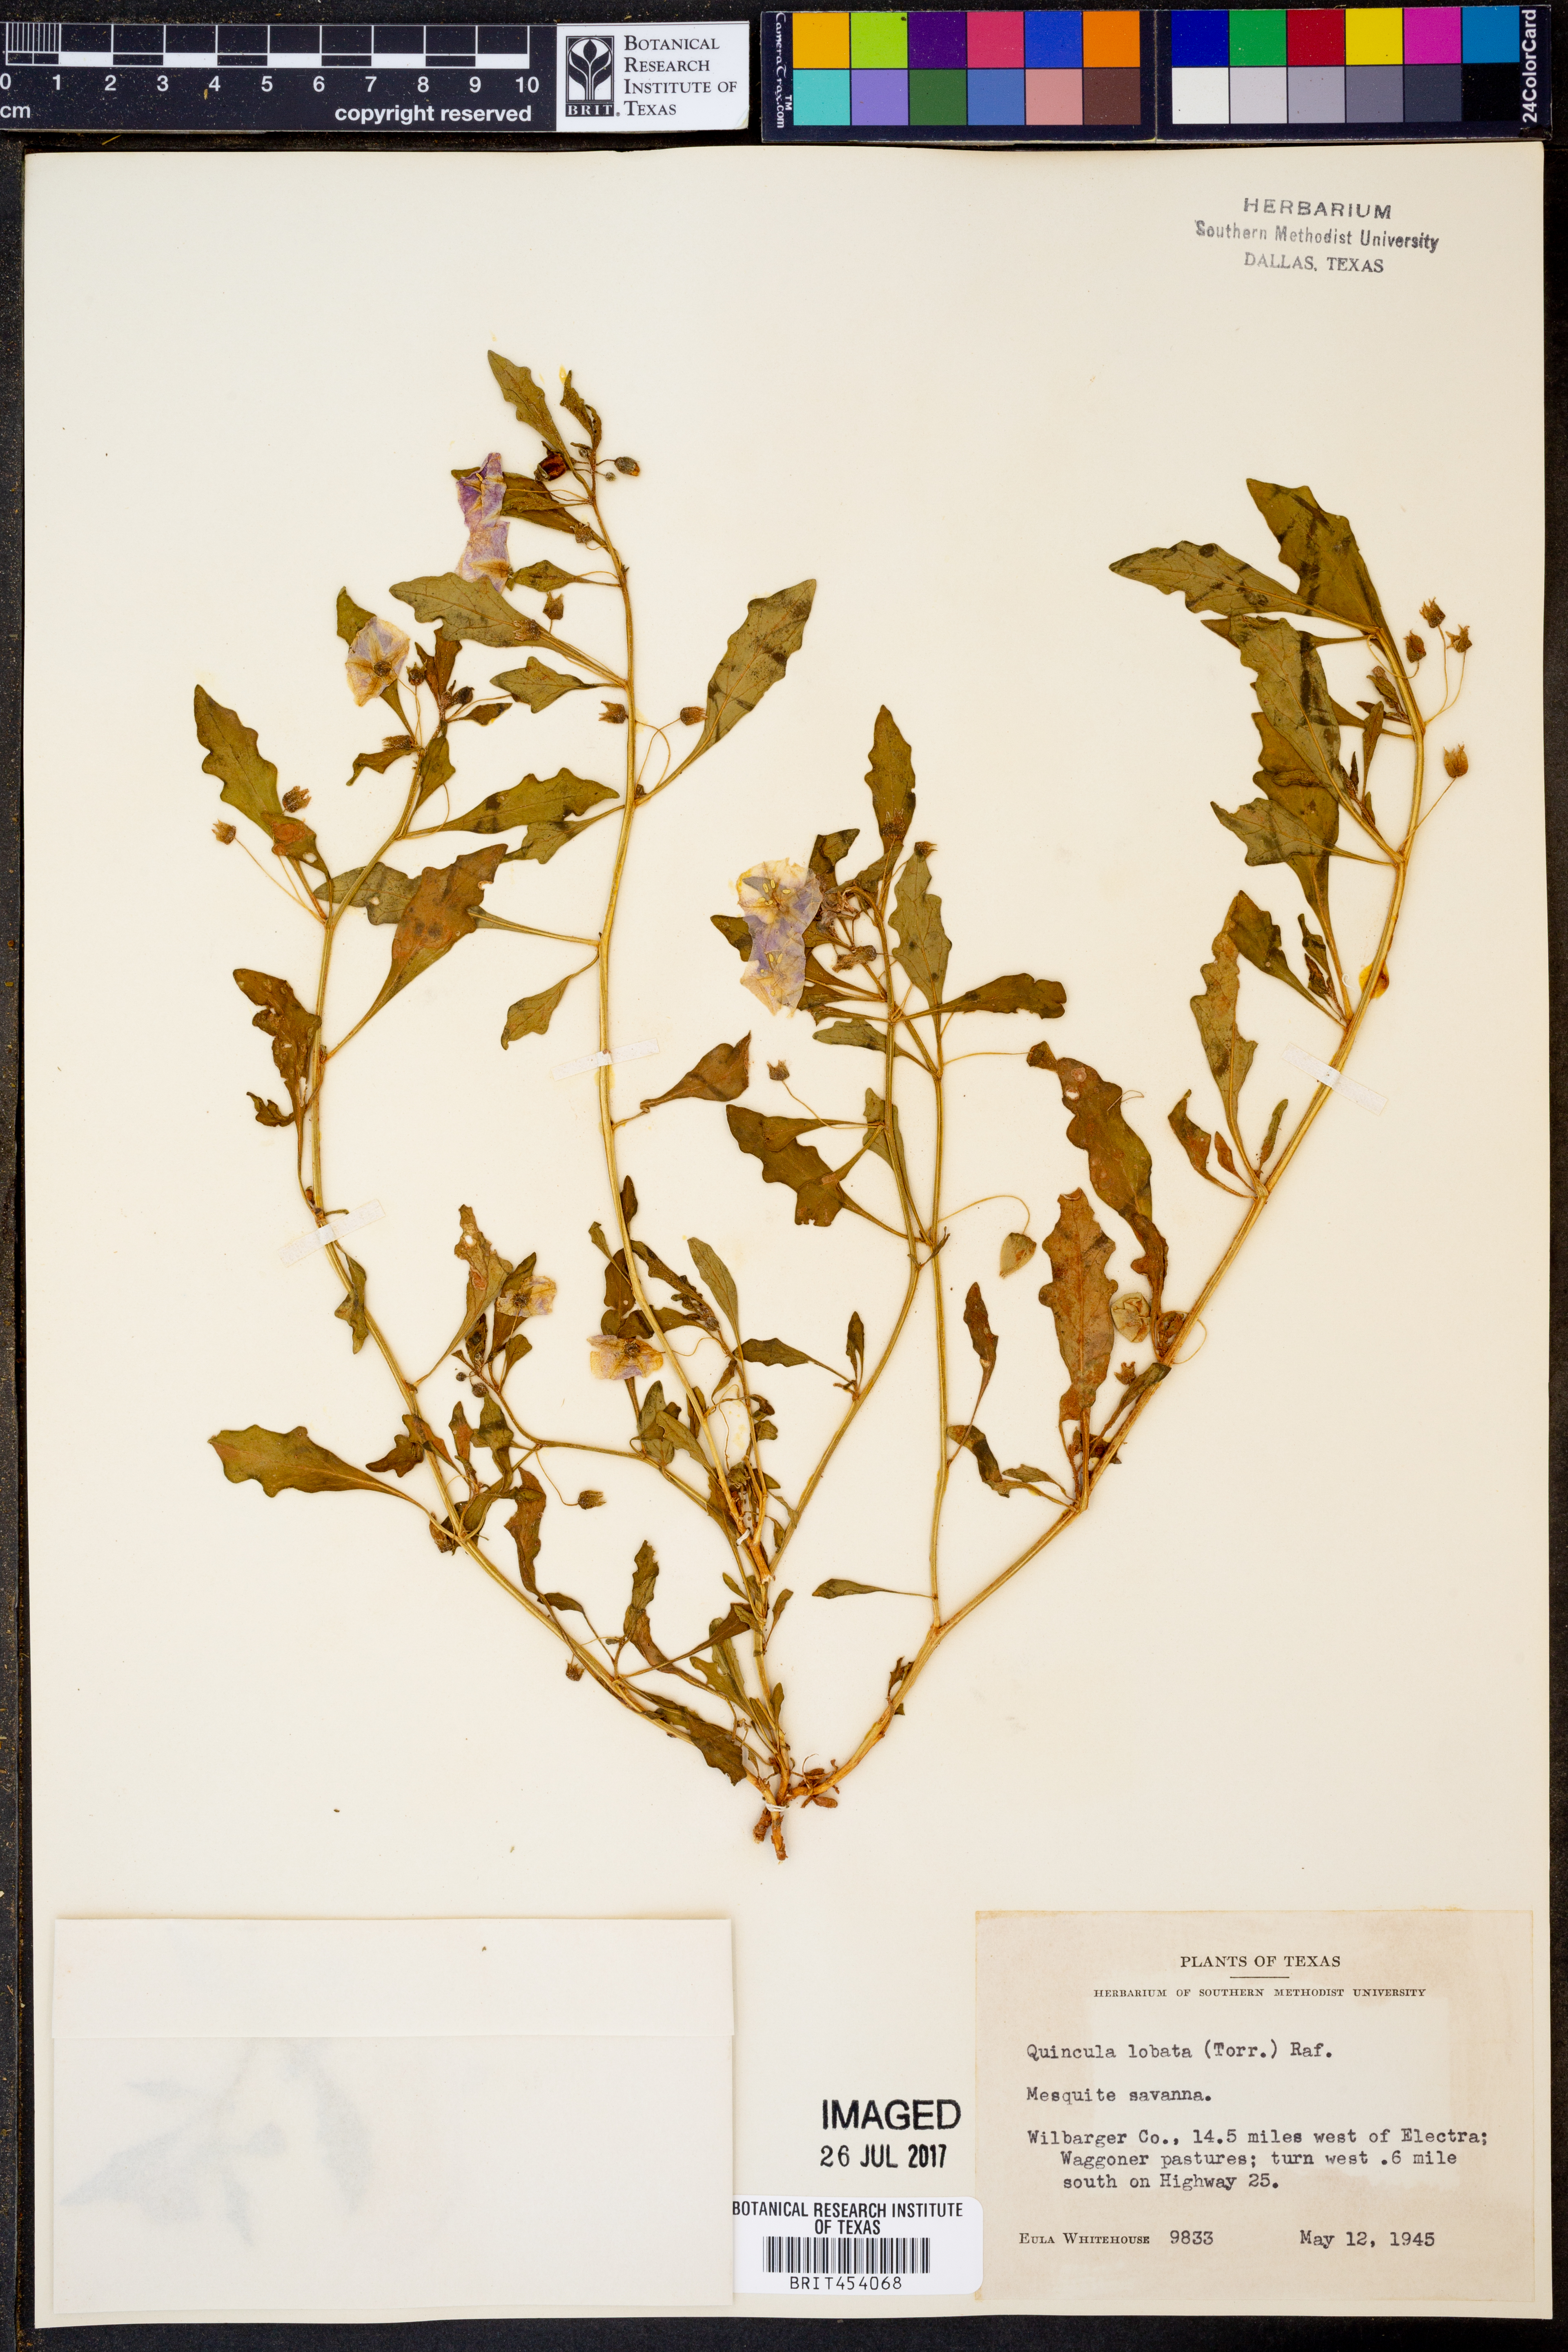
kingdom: Plantae
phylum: Tracheophyta
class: Magnoliopsida
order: Solanales
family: Solanaceae
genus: Quincula
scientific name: Quincula lobata
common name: Purple-ground-cherry
